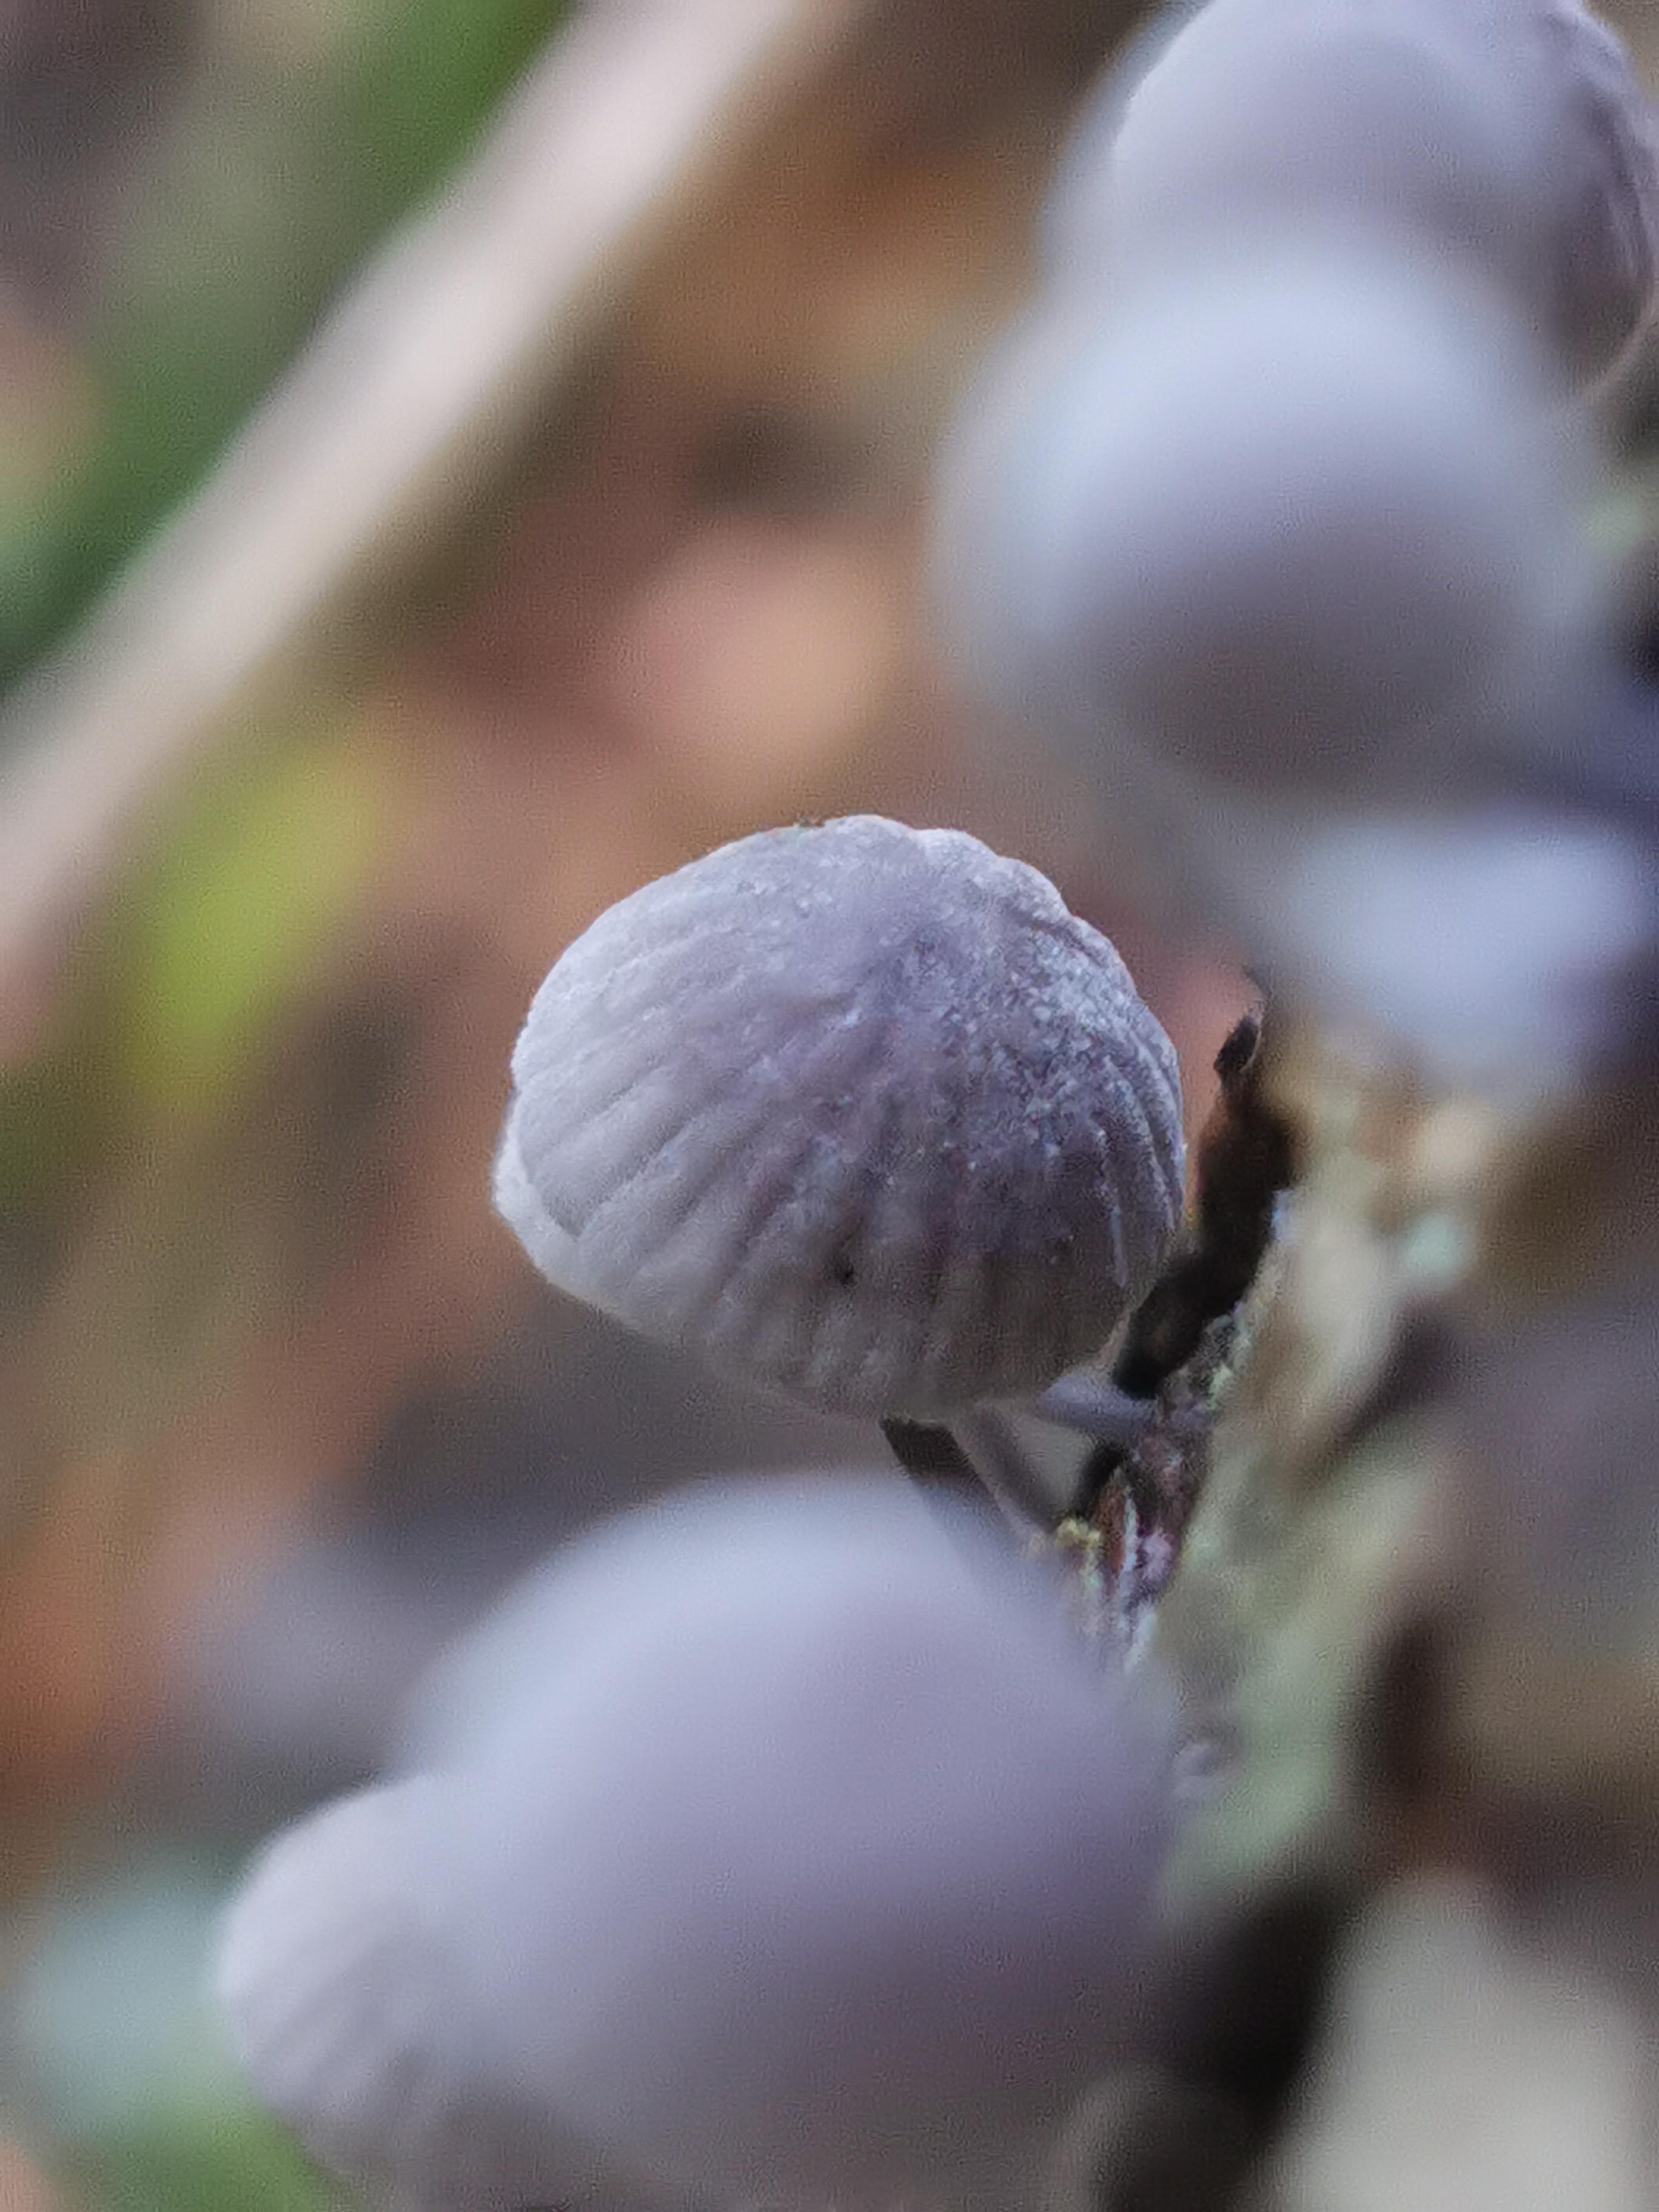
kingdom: Fungi
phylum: Basidiomycota
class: Agaricomycetes
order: Agaricales
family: Mycenaceae
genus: Mycena
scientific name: Mycena pseudocorticola
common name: gråblå bark-huesvamp
